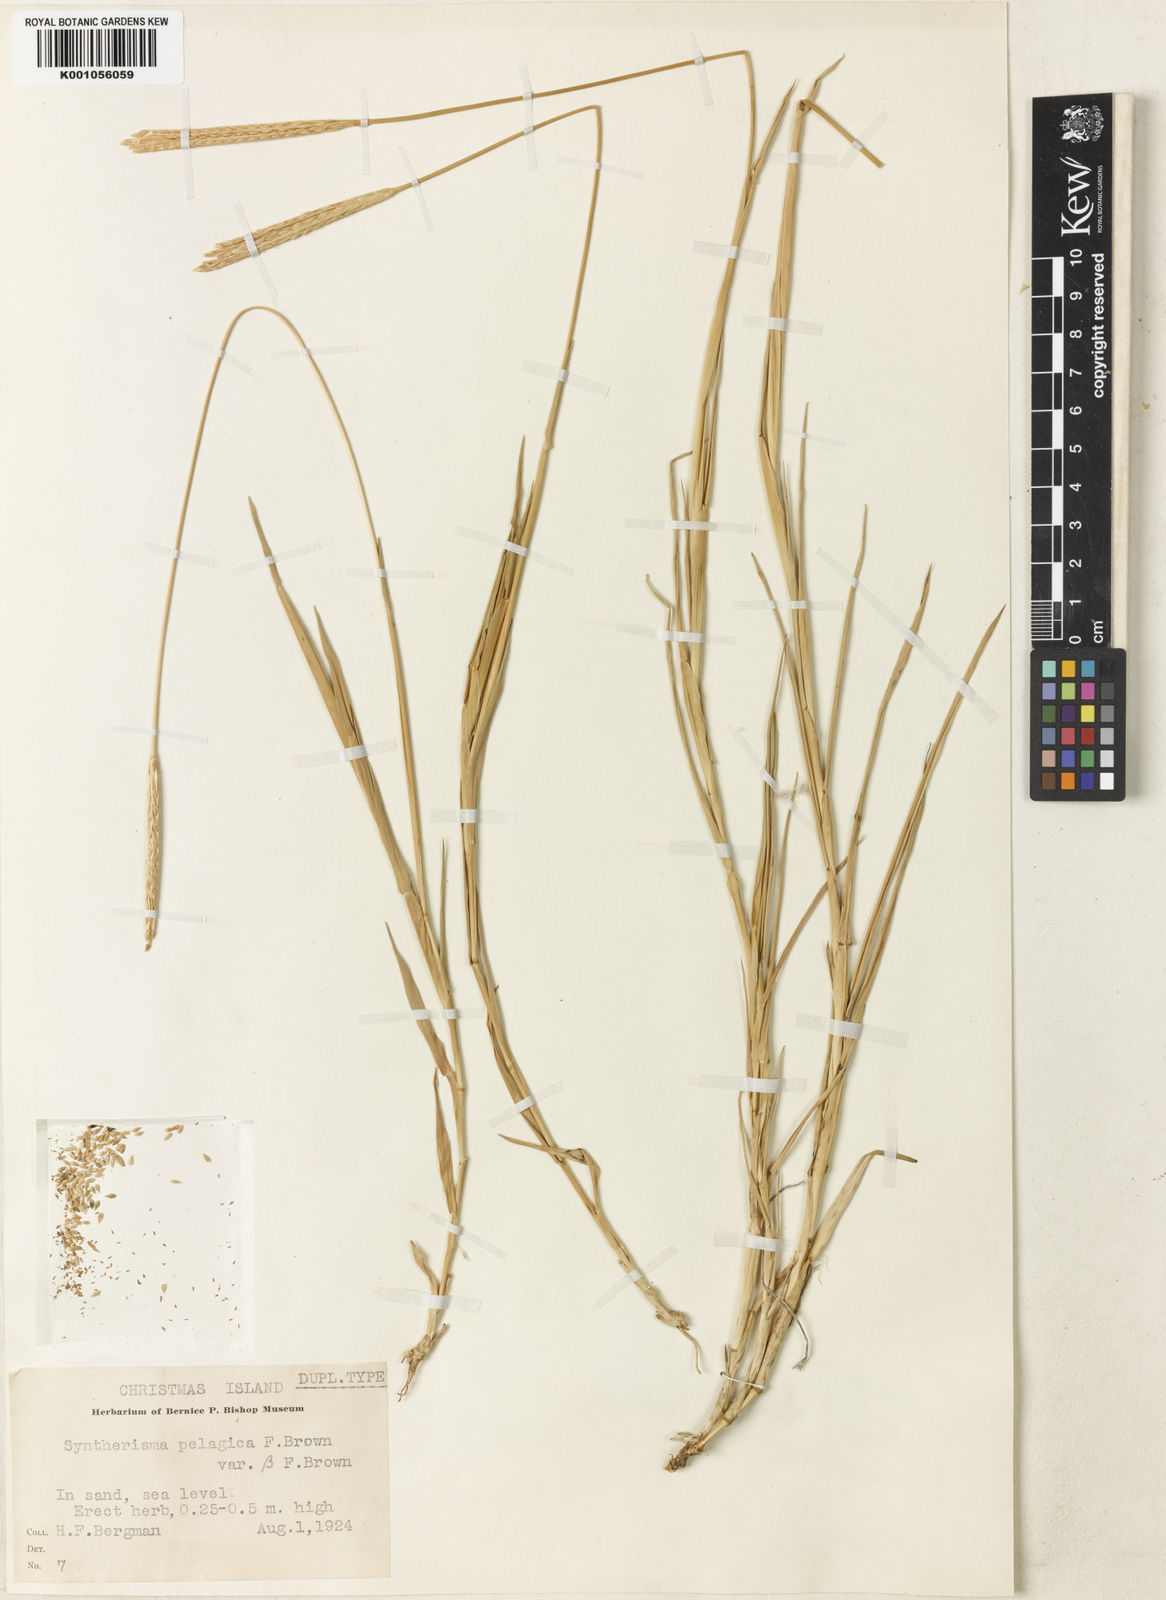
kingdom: Plantae
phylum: Tracheophyta
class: Liliopsida
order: Poales
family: Poaceae
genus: Digitaria
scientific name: Digitaria stenotaphrodes
